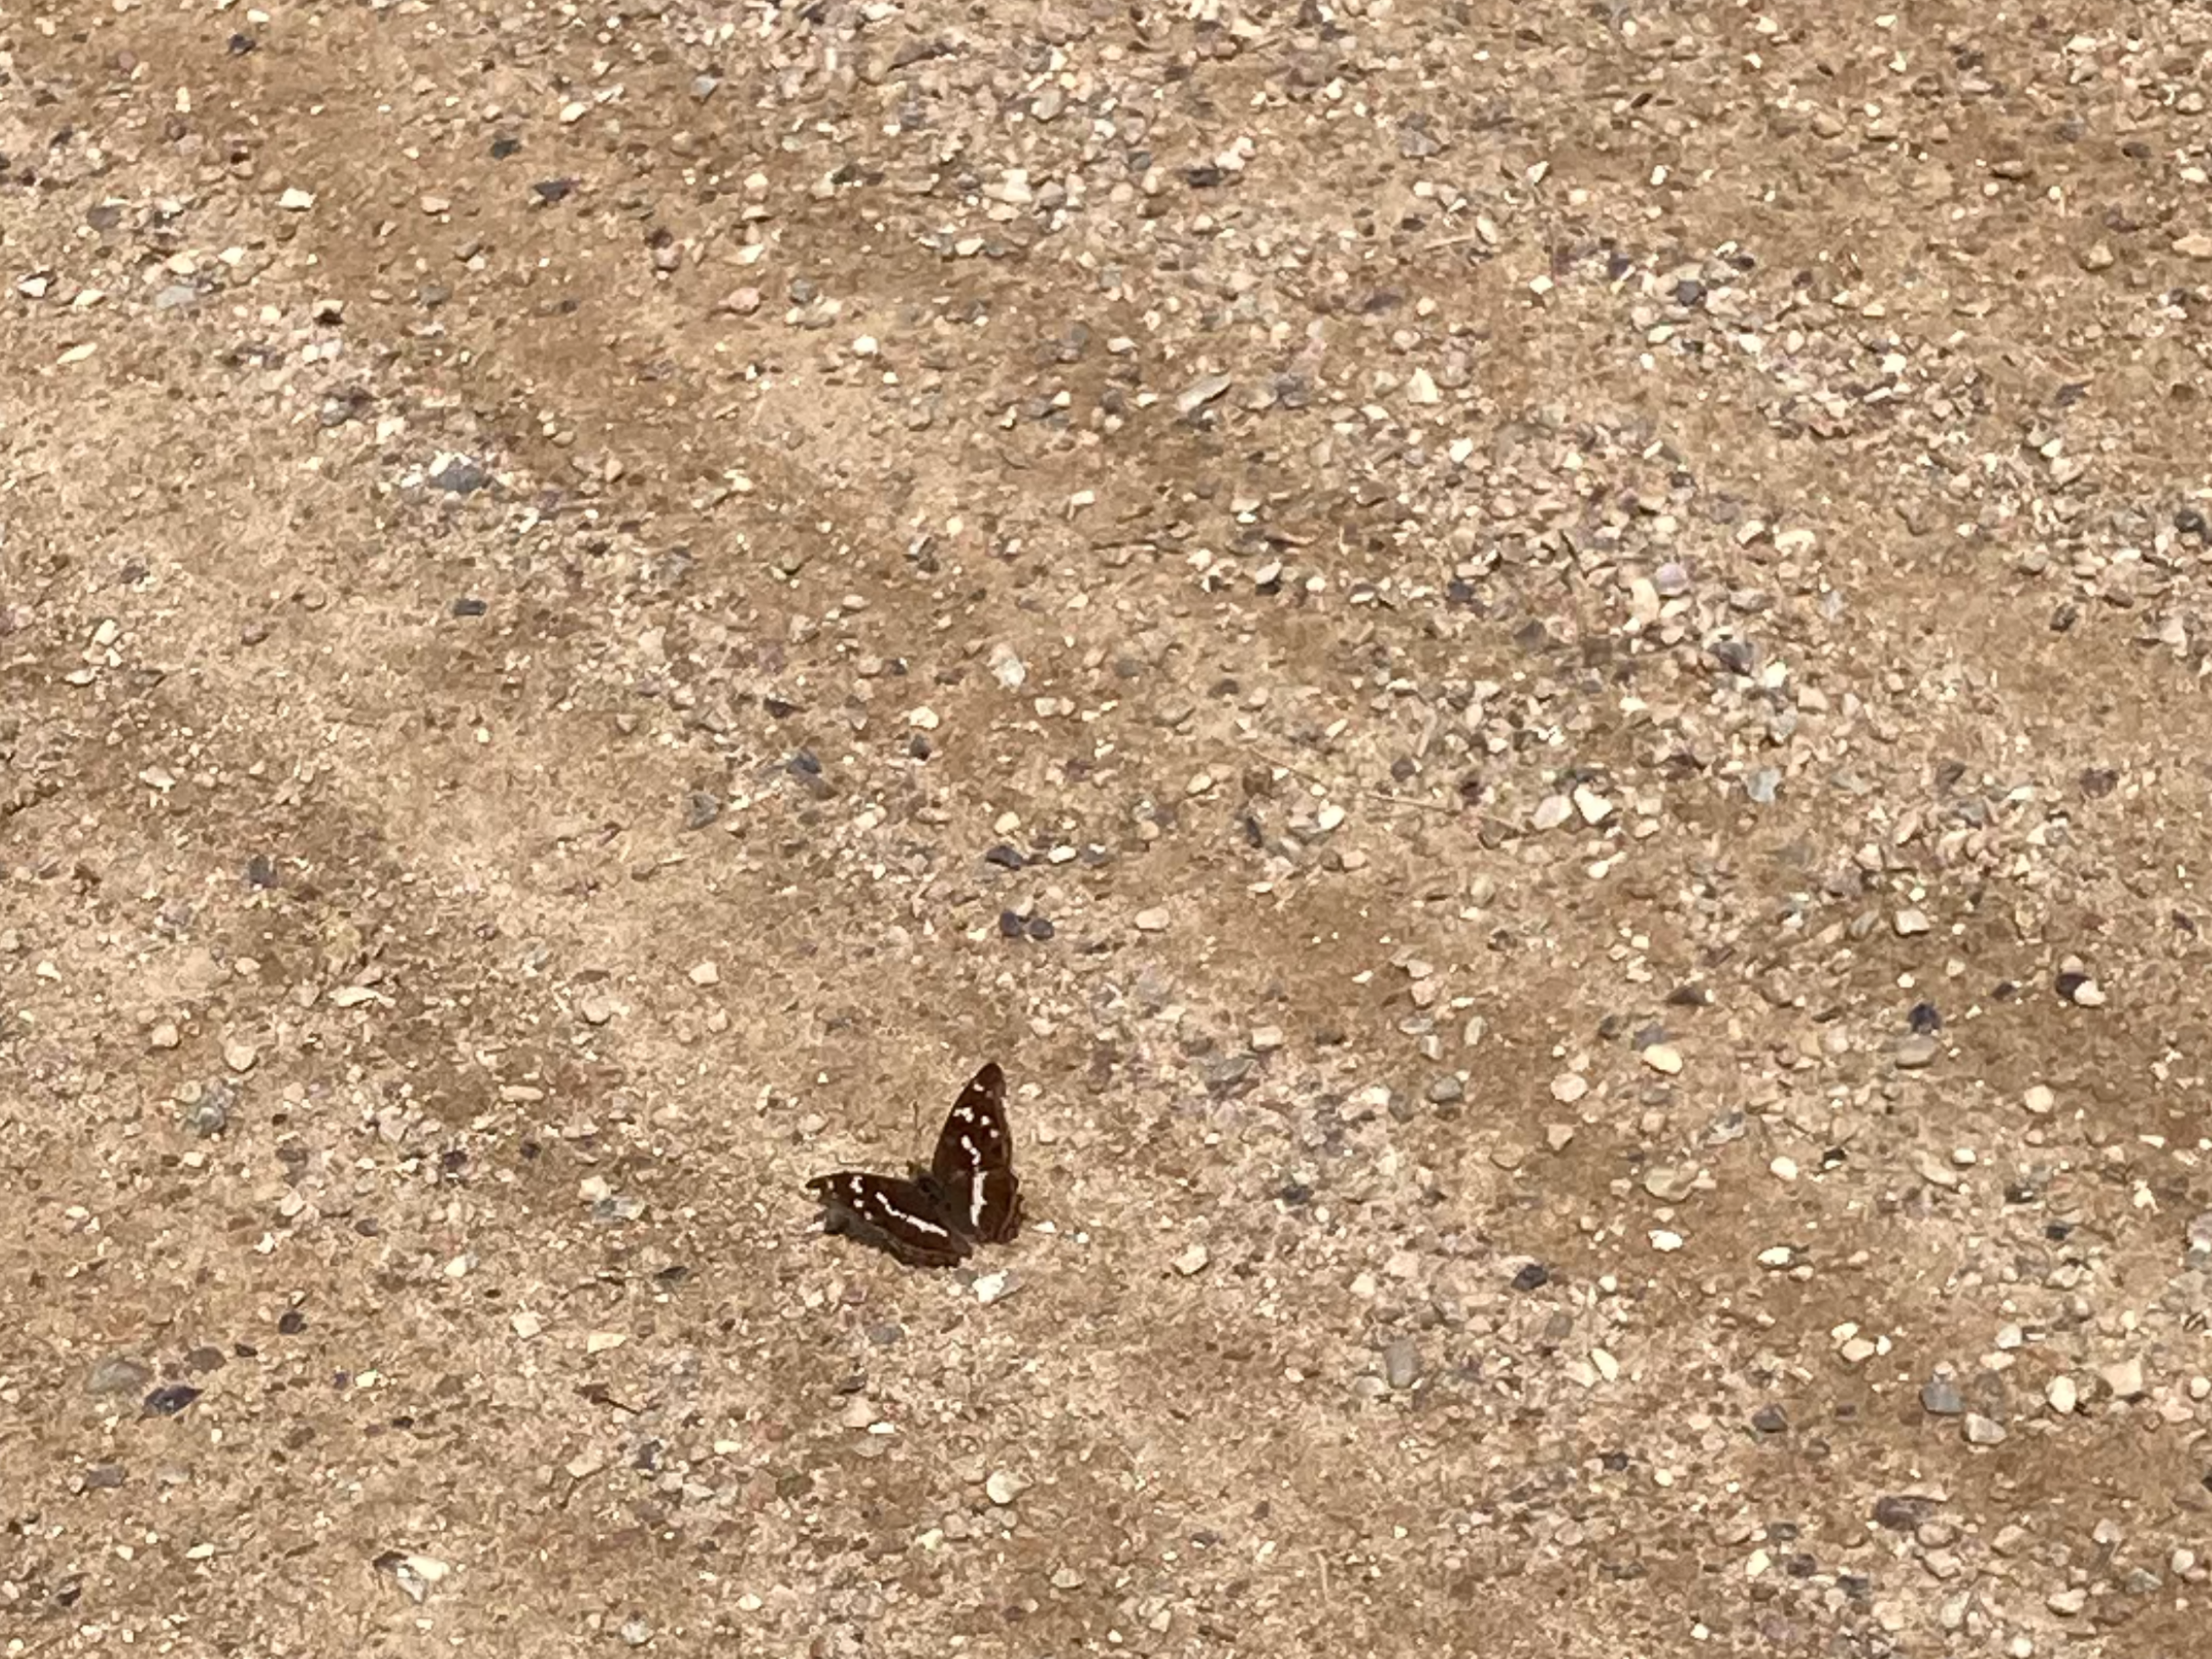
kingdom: Animalia
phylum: Arthropoda
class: Insecta
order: Lepidoptera
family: Nymphalidae
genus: Apatura
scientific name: Apatura iris
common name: Iris
